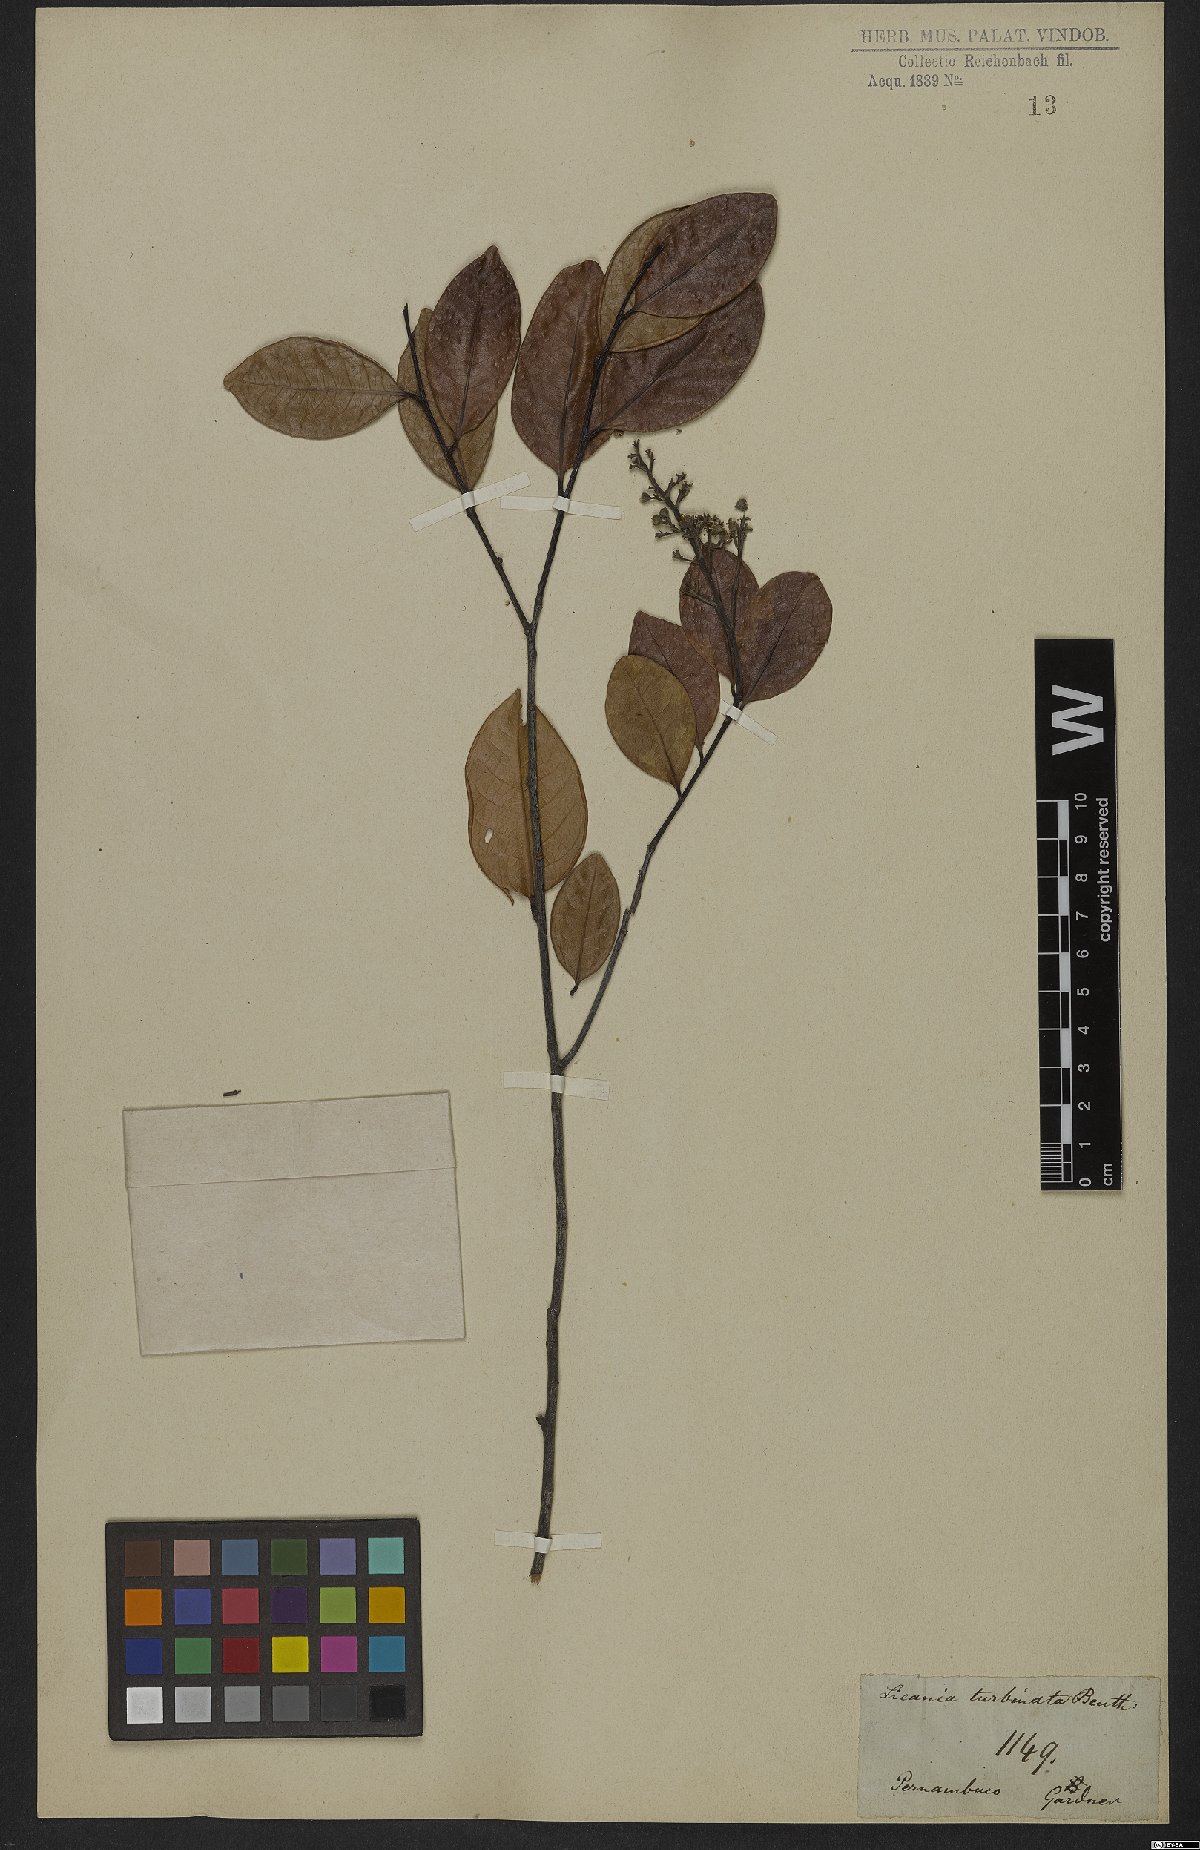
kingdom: Plantae
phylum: Tracheophyta
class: Magnoliopsida
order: Malpighiales
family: Chrysobalanaceae
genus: Leptobalanus
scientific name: Leptobalanus turbinatus
